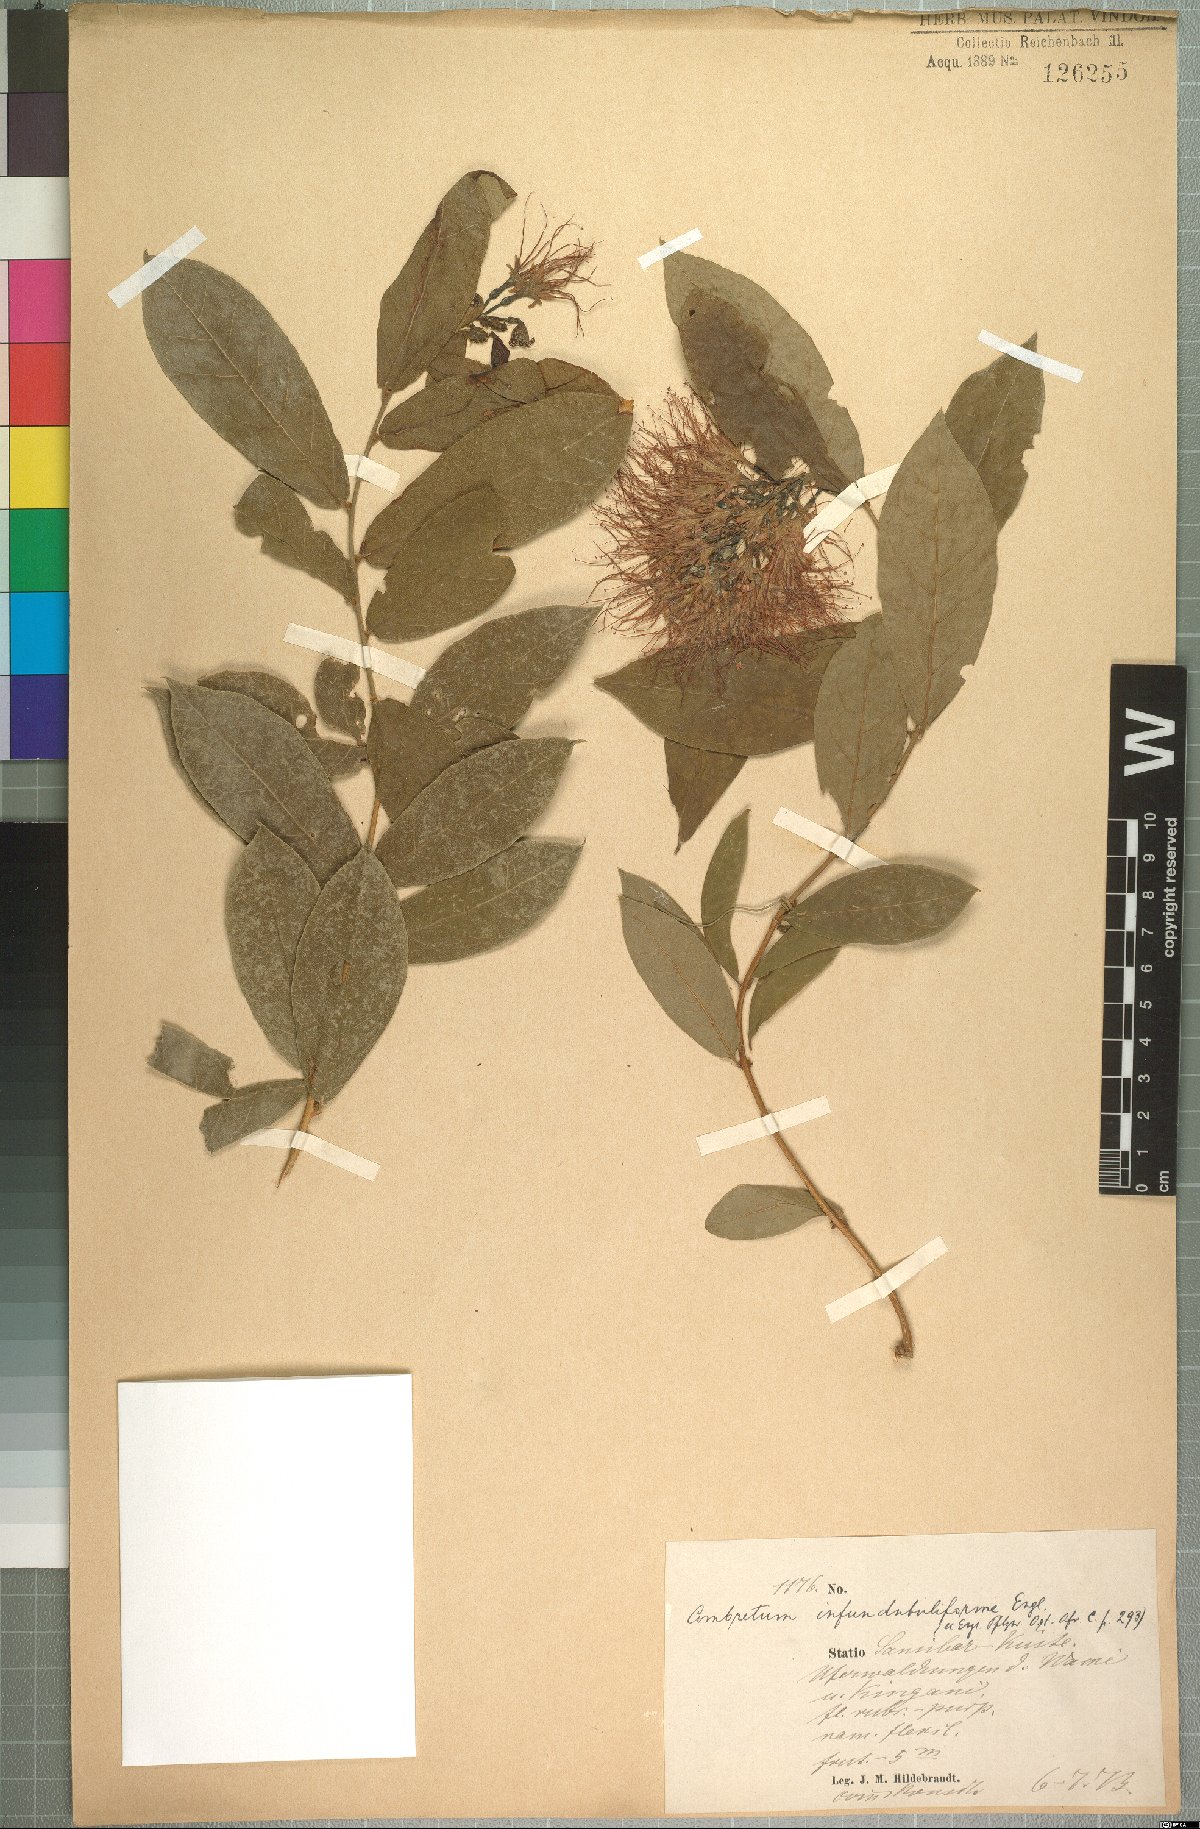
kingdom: Plantae
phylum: Tracheophyta
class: Magnoliopsida
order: Myrtales
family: Combretaceae
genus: Combretum
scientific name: Combretum constrictum
